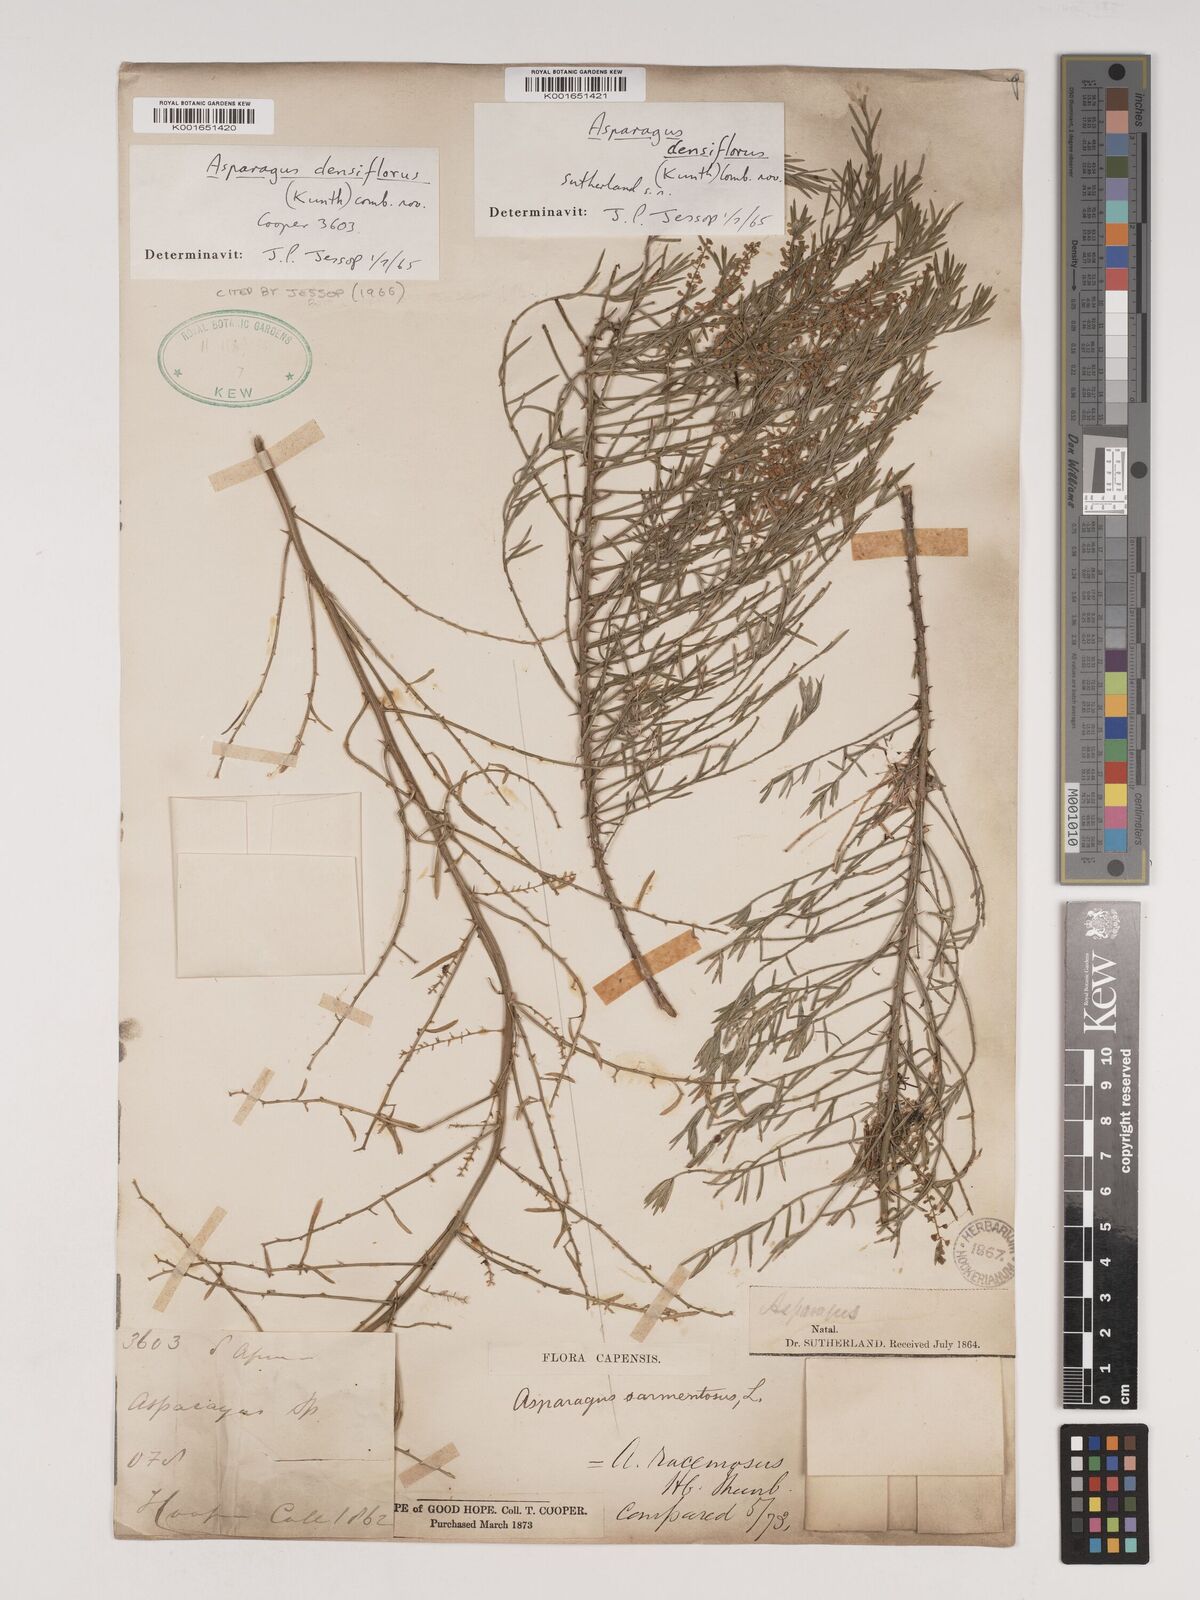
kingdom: Plantae
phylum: Tracheophyta
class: Liliopsida
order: Asparagales
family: Asparagaceae
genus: Asparagus
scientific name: Asparagus densiflorus
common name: Asparagus fern
